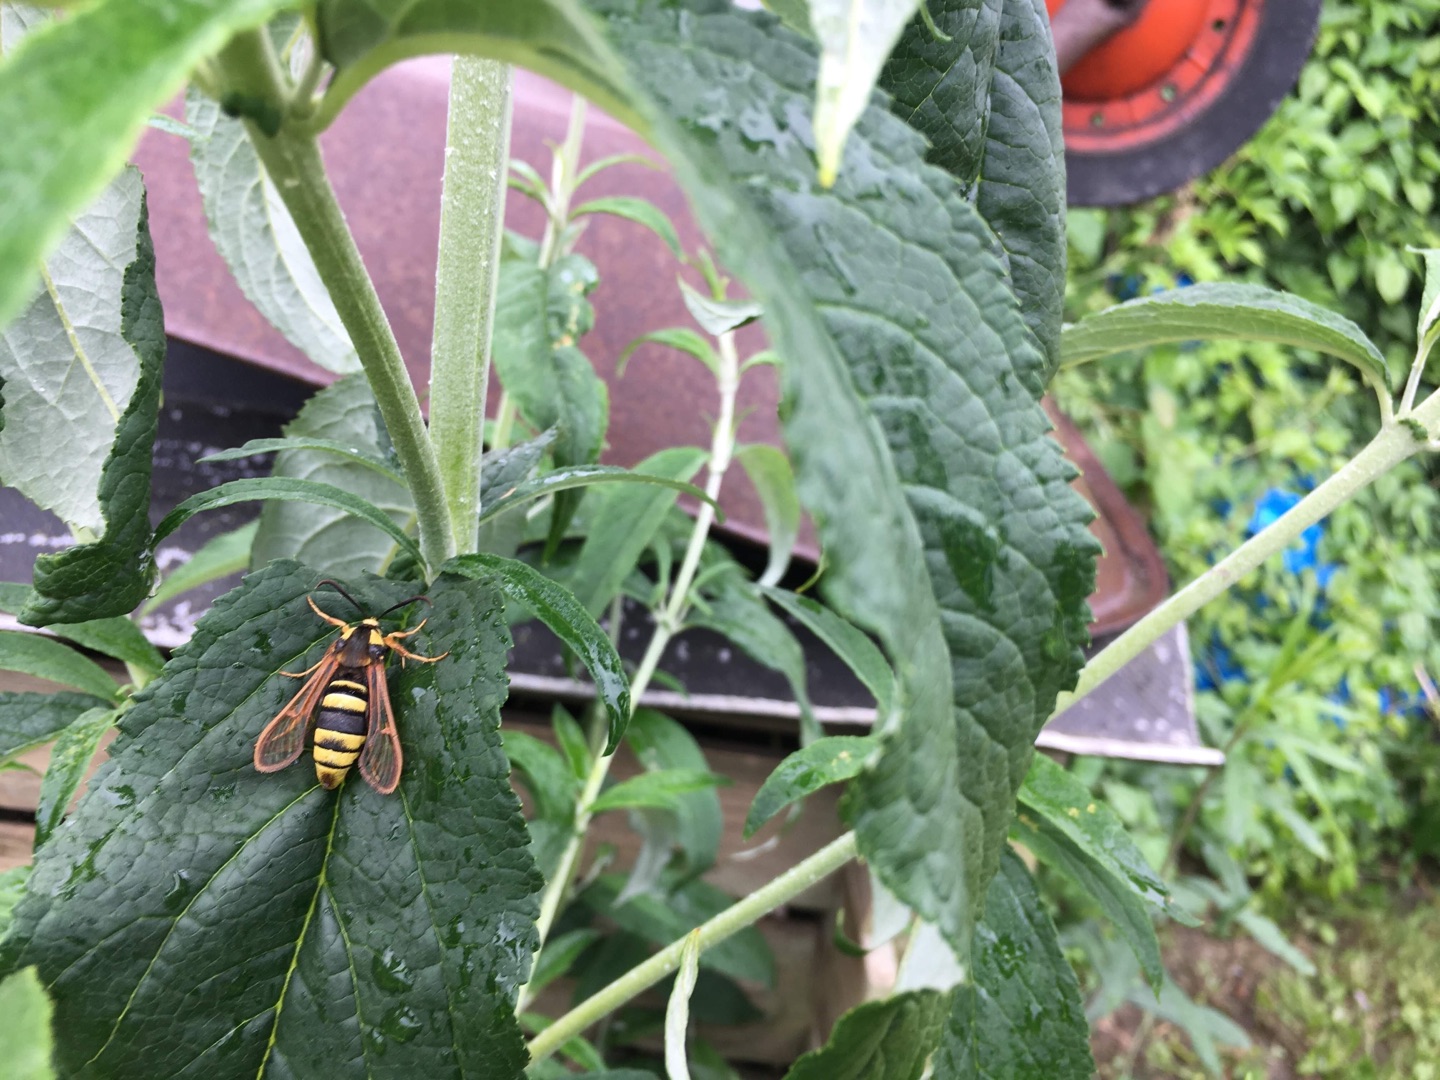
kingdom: Animalia
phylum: Arthropoda
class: Insecta
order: Lepidoptera
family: Sesiidae
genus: Sesia
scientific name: Sesia apiformis
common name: Stor glassværmer
